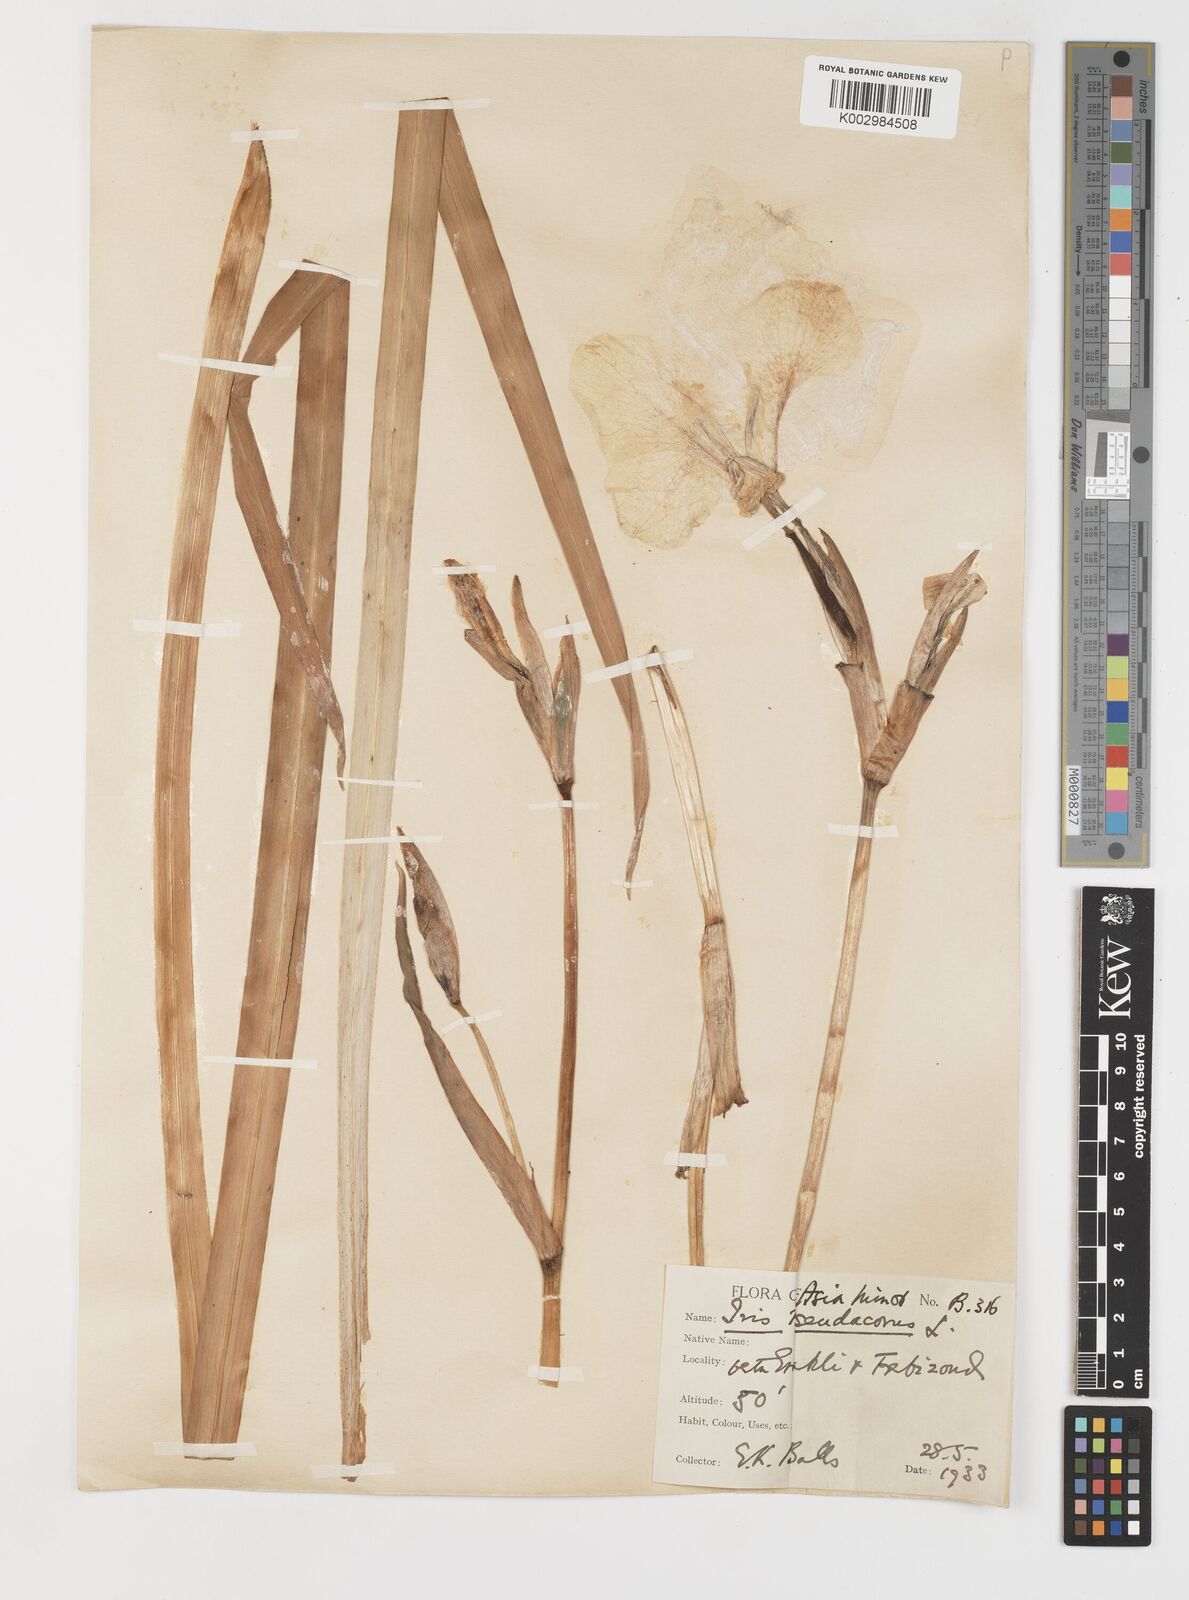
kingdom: Plantae
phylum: Tracheophyta
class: Liliopsida
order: Asparagales
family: Iridaceae
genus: Iris
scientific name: Iris pseudacorus
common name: Yellow flag
